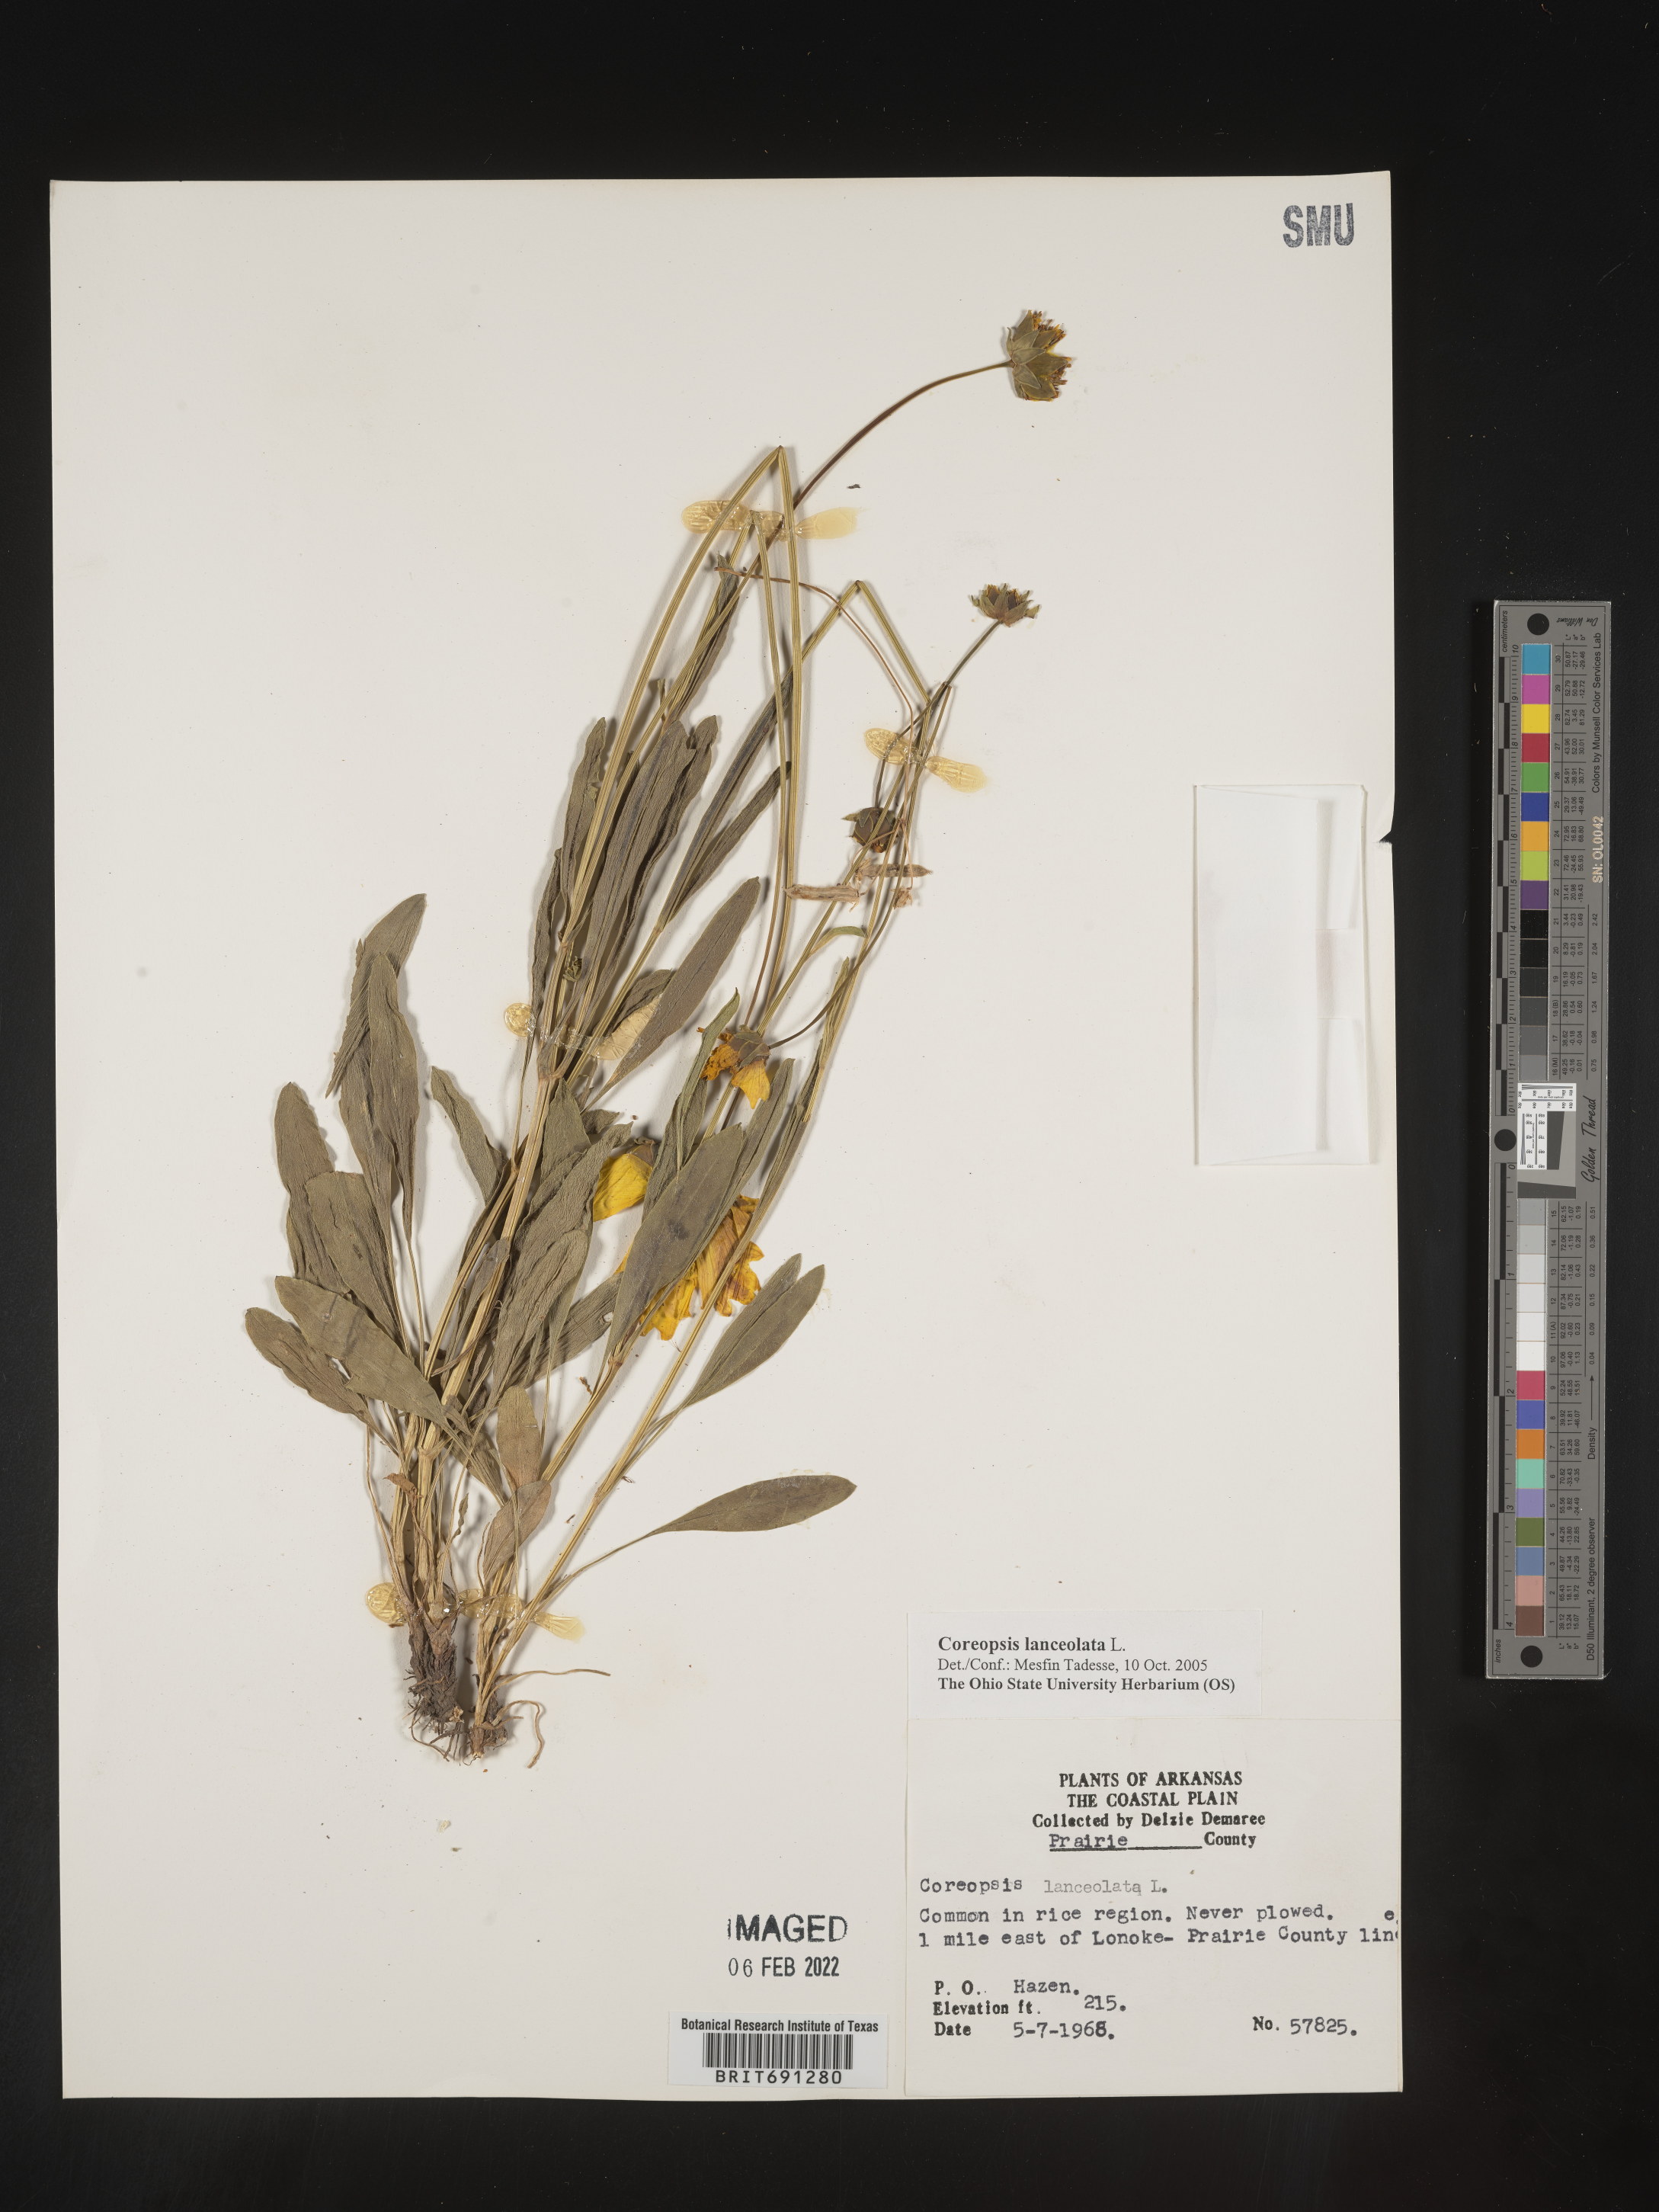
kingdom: Plantae
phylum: Tracheophyta
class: Magnoliopsida
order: Asterales
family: Asteraceae
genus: Coreopsis
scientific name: Coreopsis lanceolata
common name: Garden coreopsis
